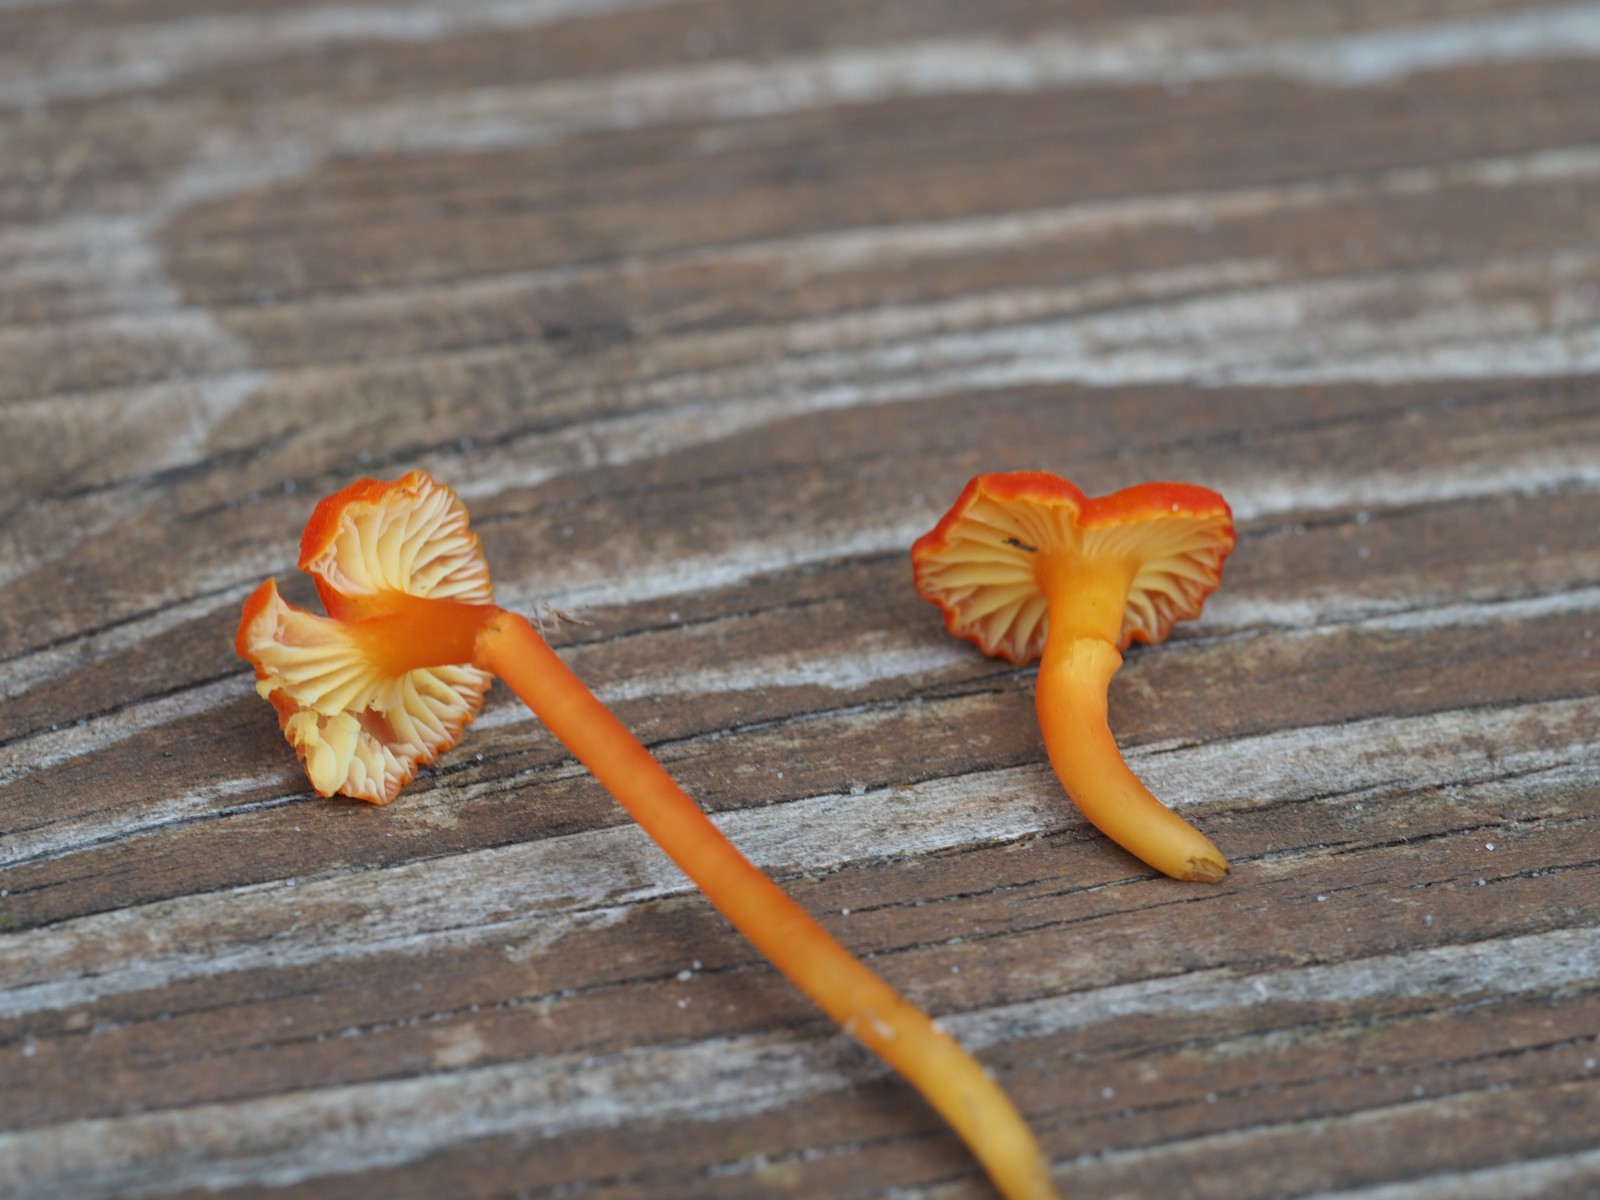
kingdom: Fungi
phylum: Basidiomycota
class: Agaricomycetes
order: Agaricales
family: Hygrophoraceae
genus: Hygrocybe
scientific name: Hygrocybe
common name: vokshat
